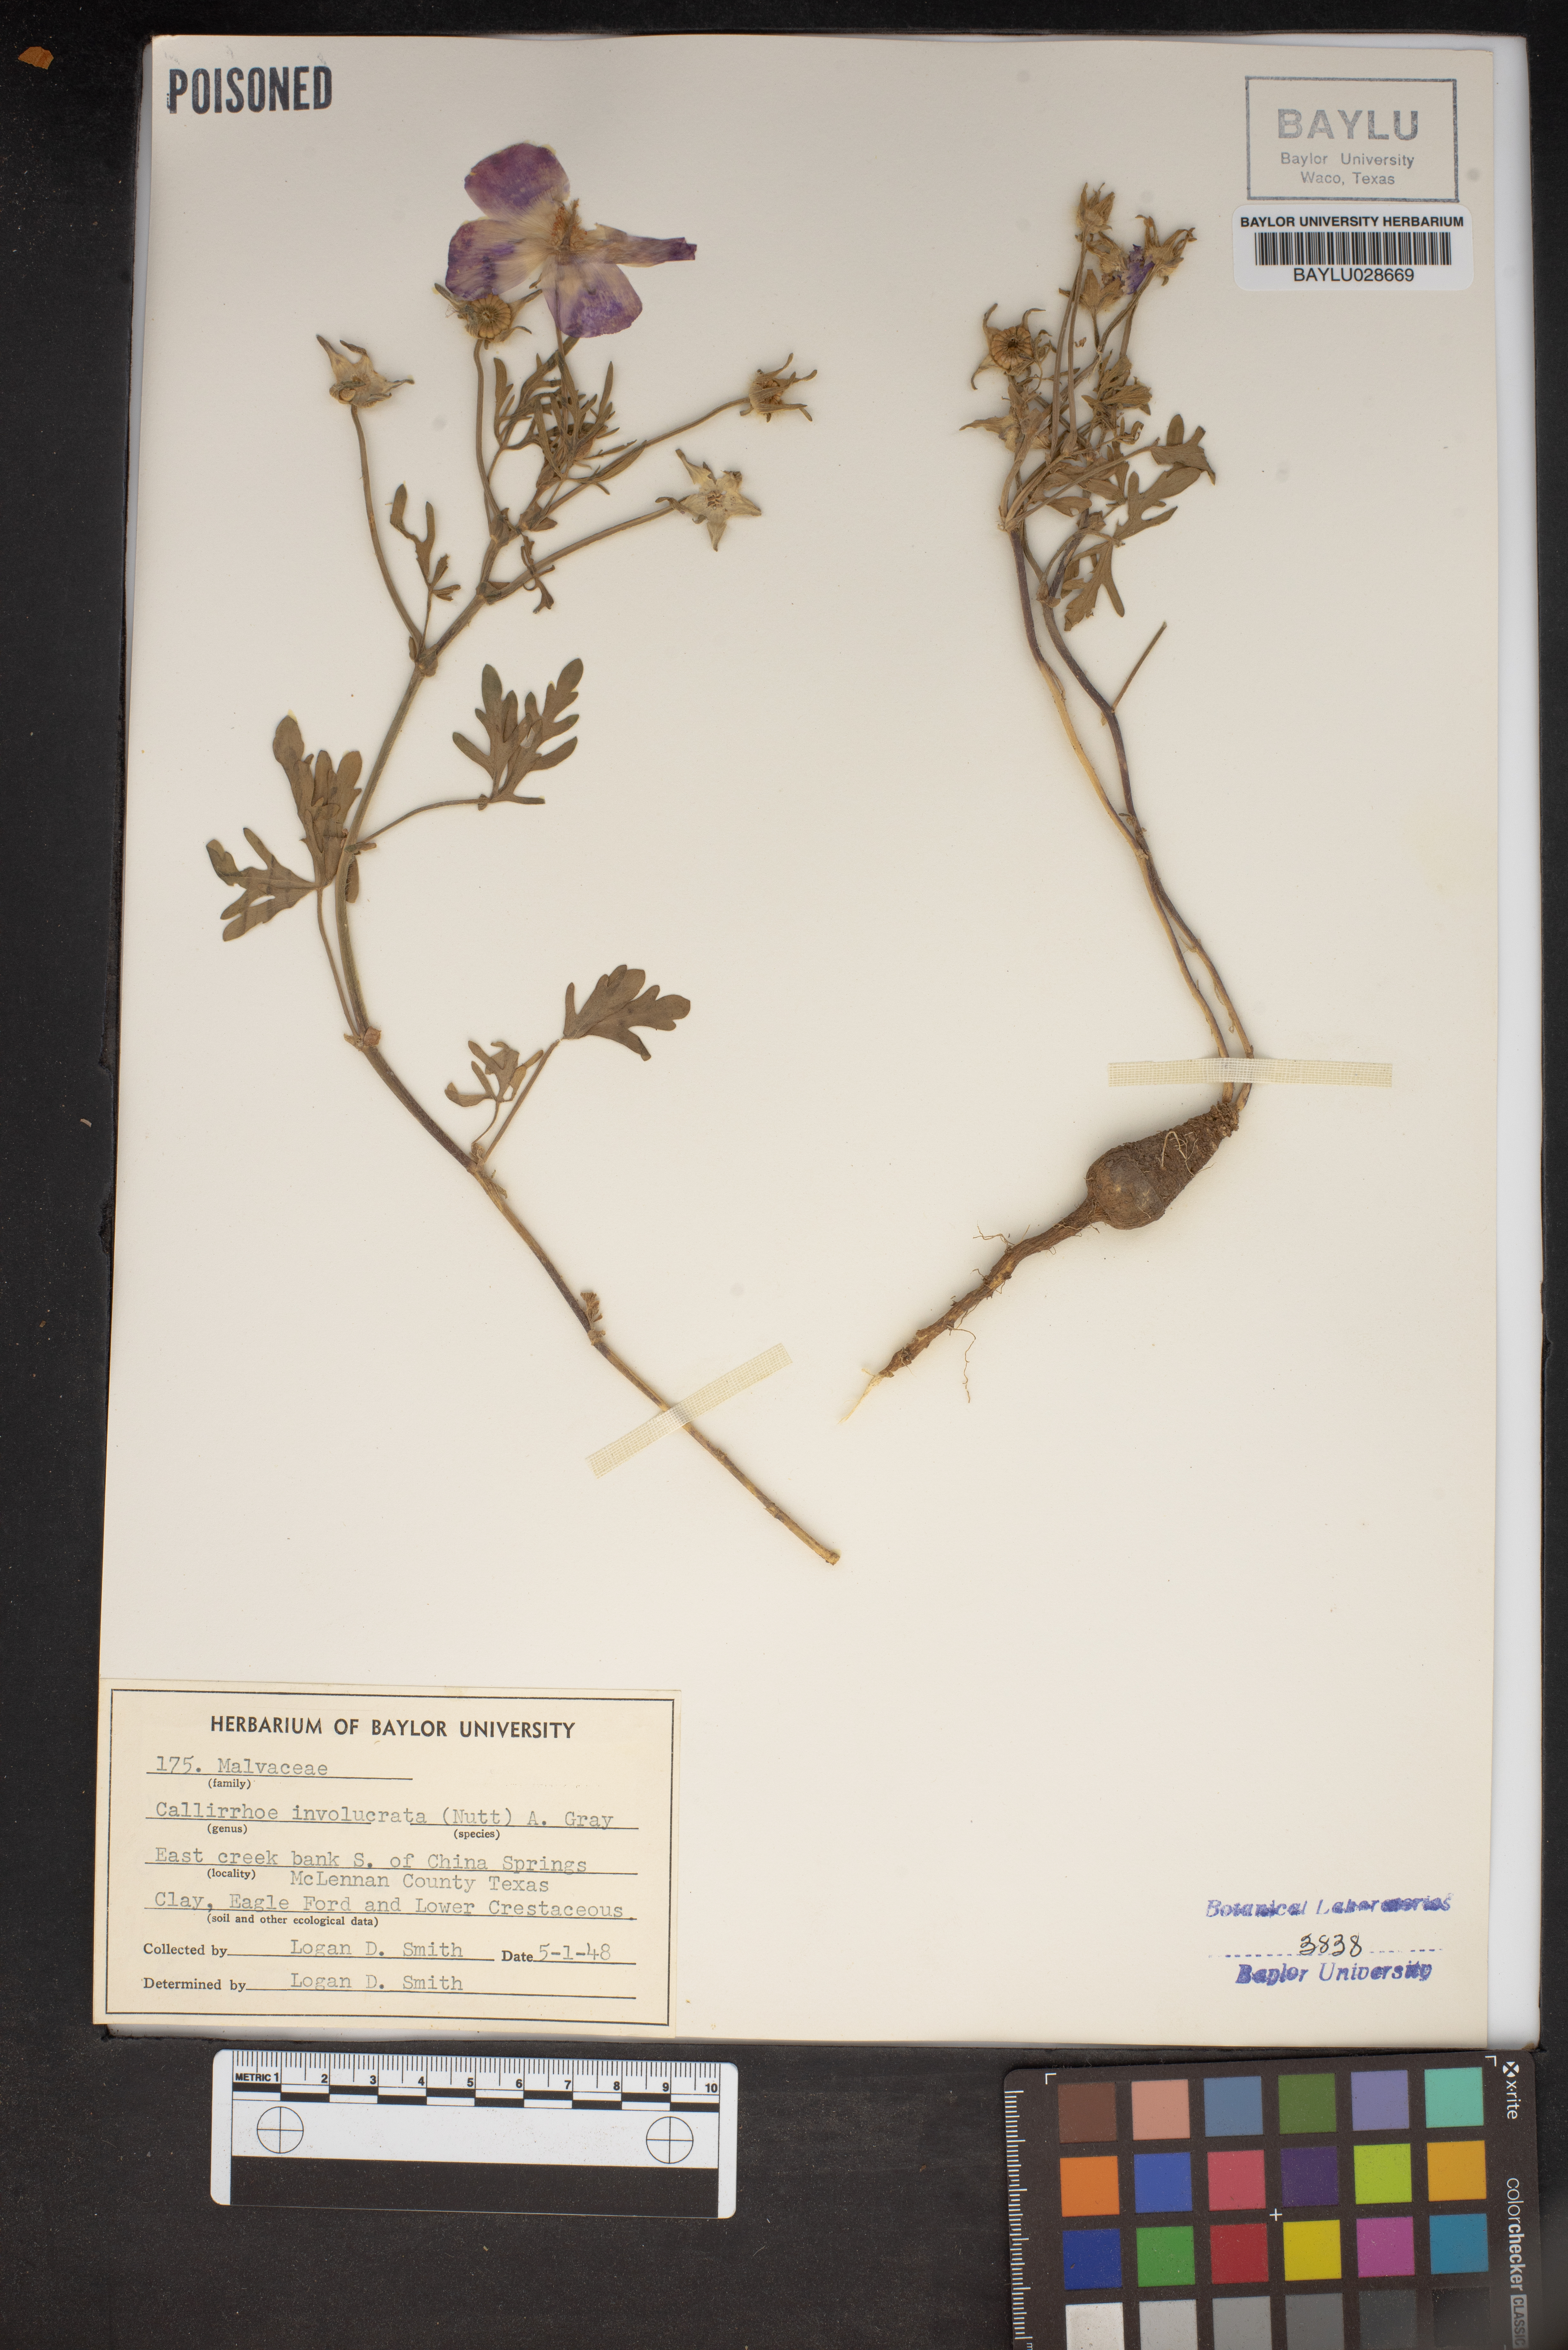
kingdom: Plantae
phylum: Tracheophyta
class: Magnoliopsida
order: Malvales
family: Malvaceae
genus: Callirhoe
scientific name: Callirhoe involucrata
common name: Purple poppy-mallow
